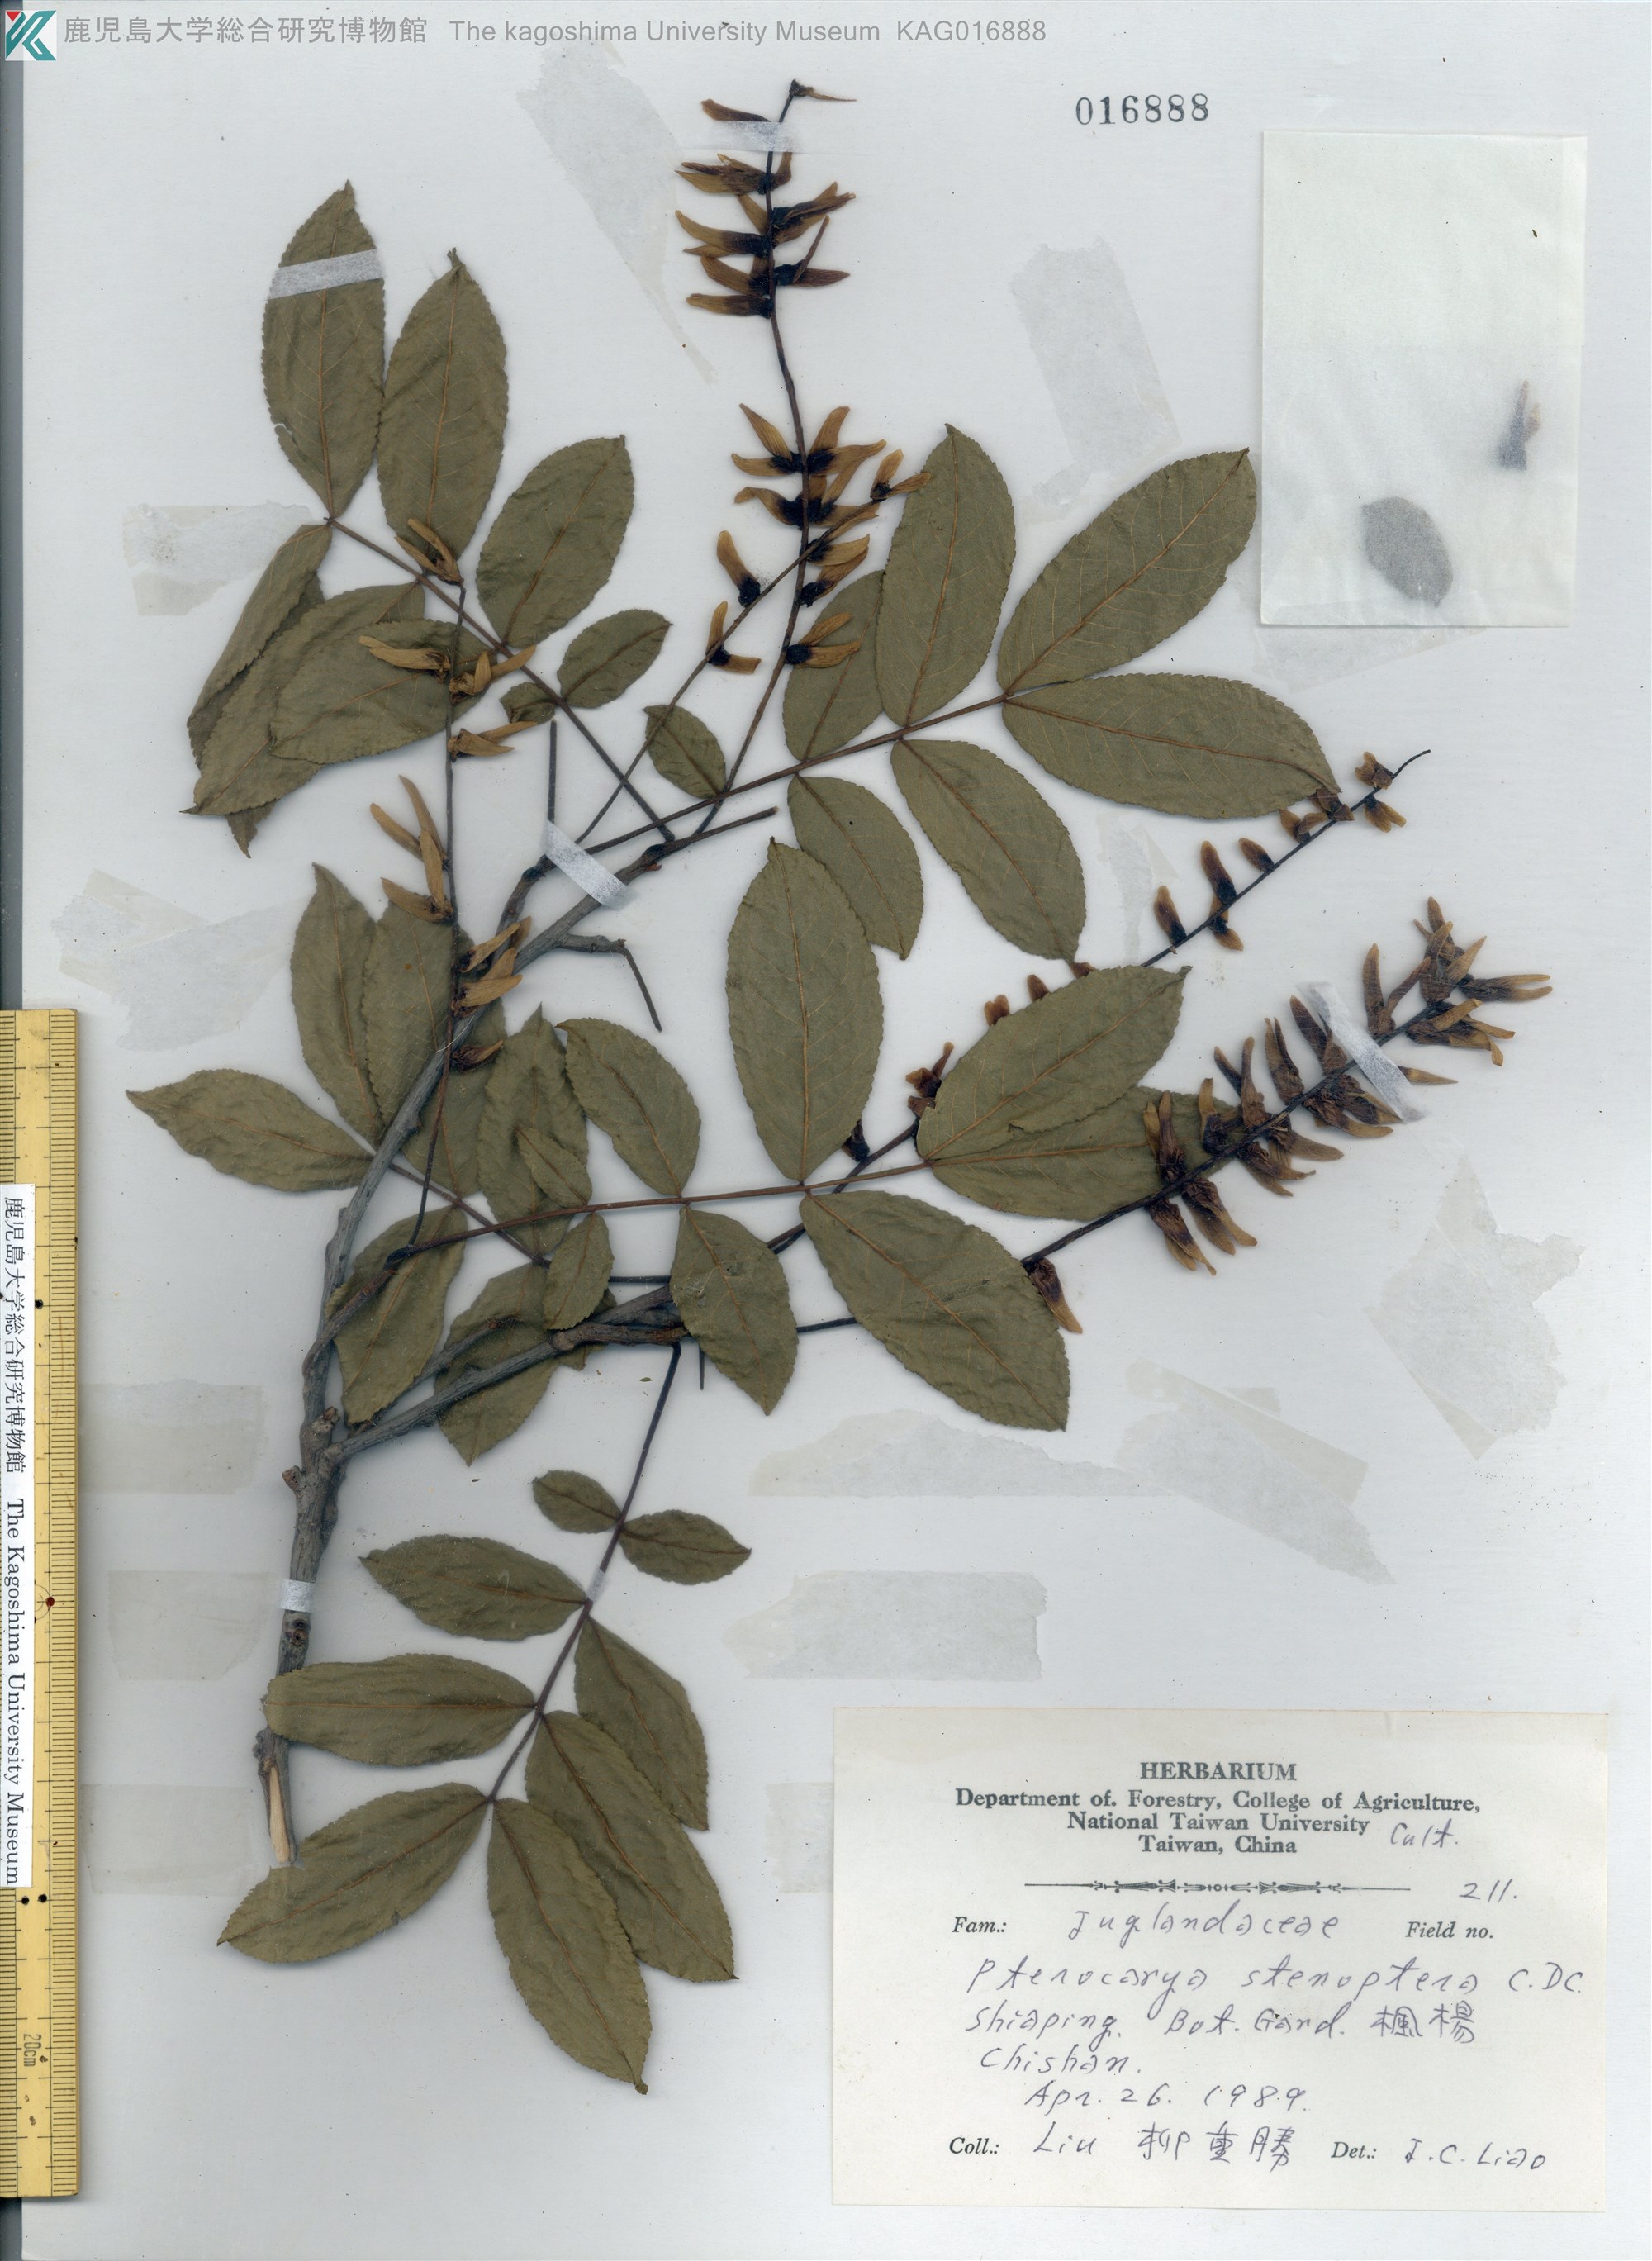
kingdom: Plantae
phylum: Tracheophyta
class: Magnoliopsida
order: Fagales
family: Juglandaceae
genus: Pterocarya
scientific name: Pterocarya stenoptera
